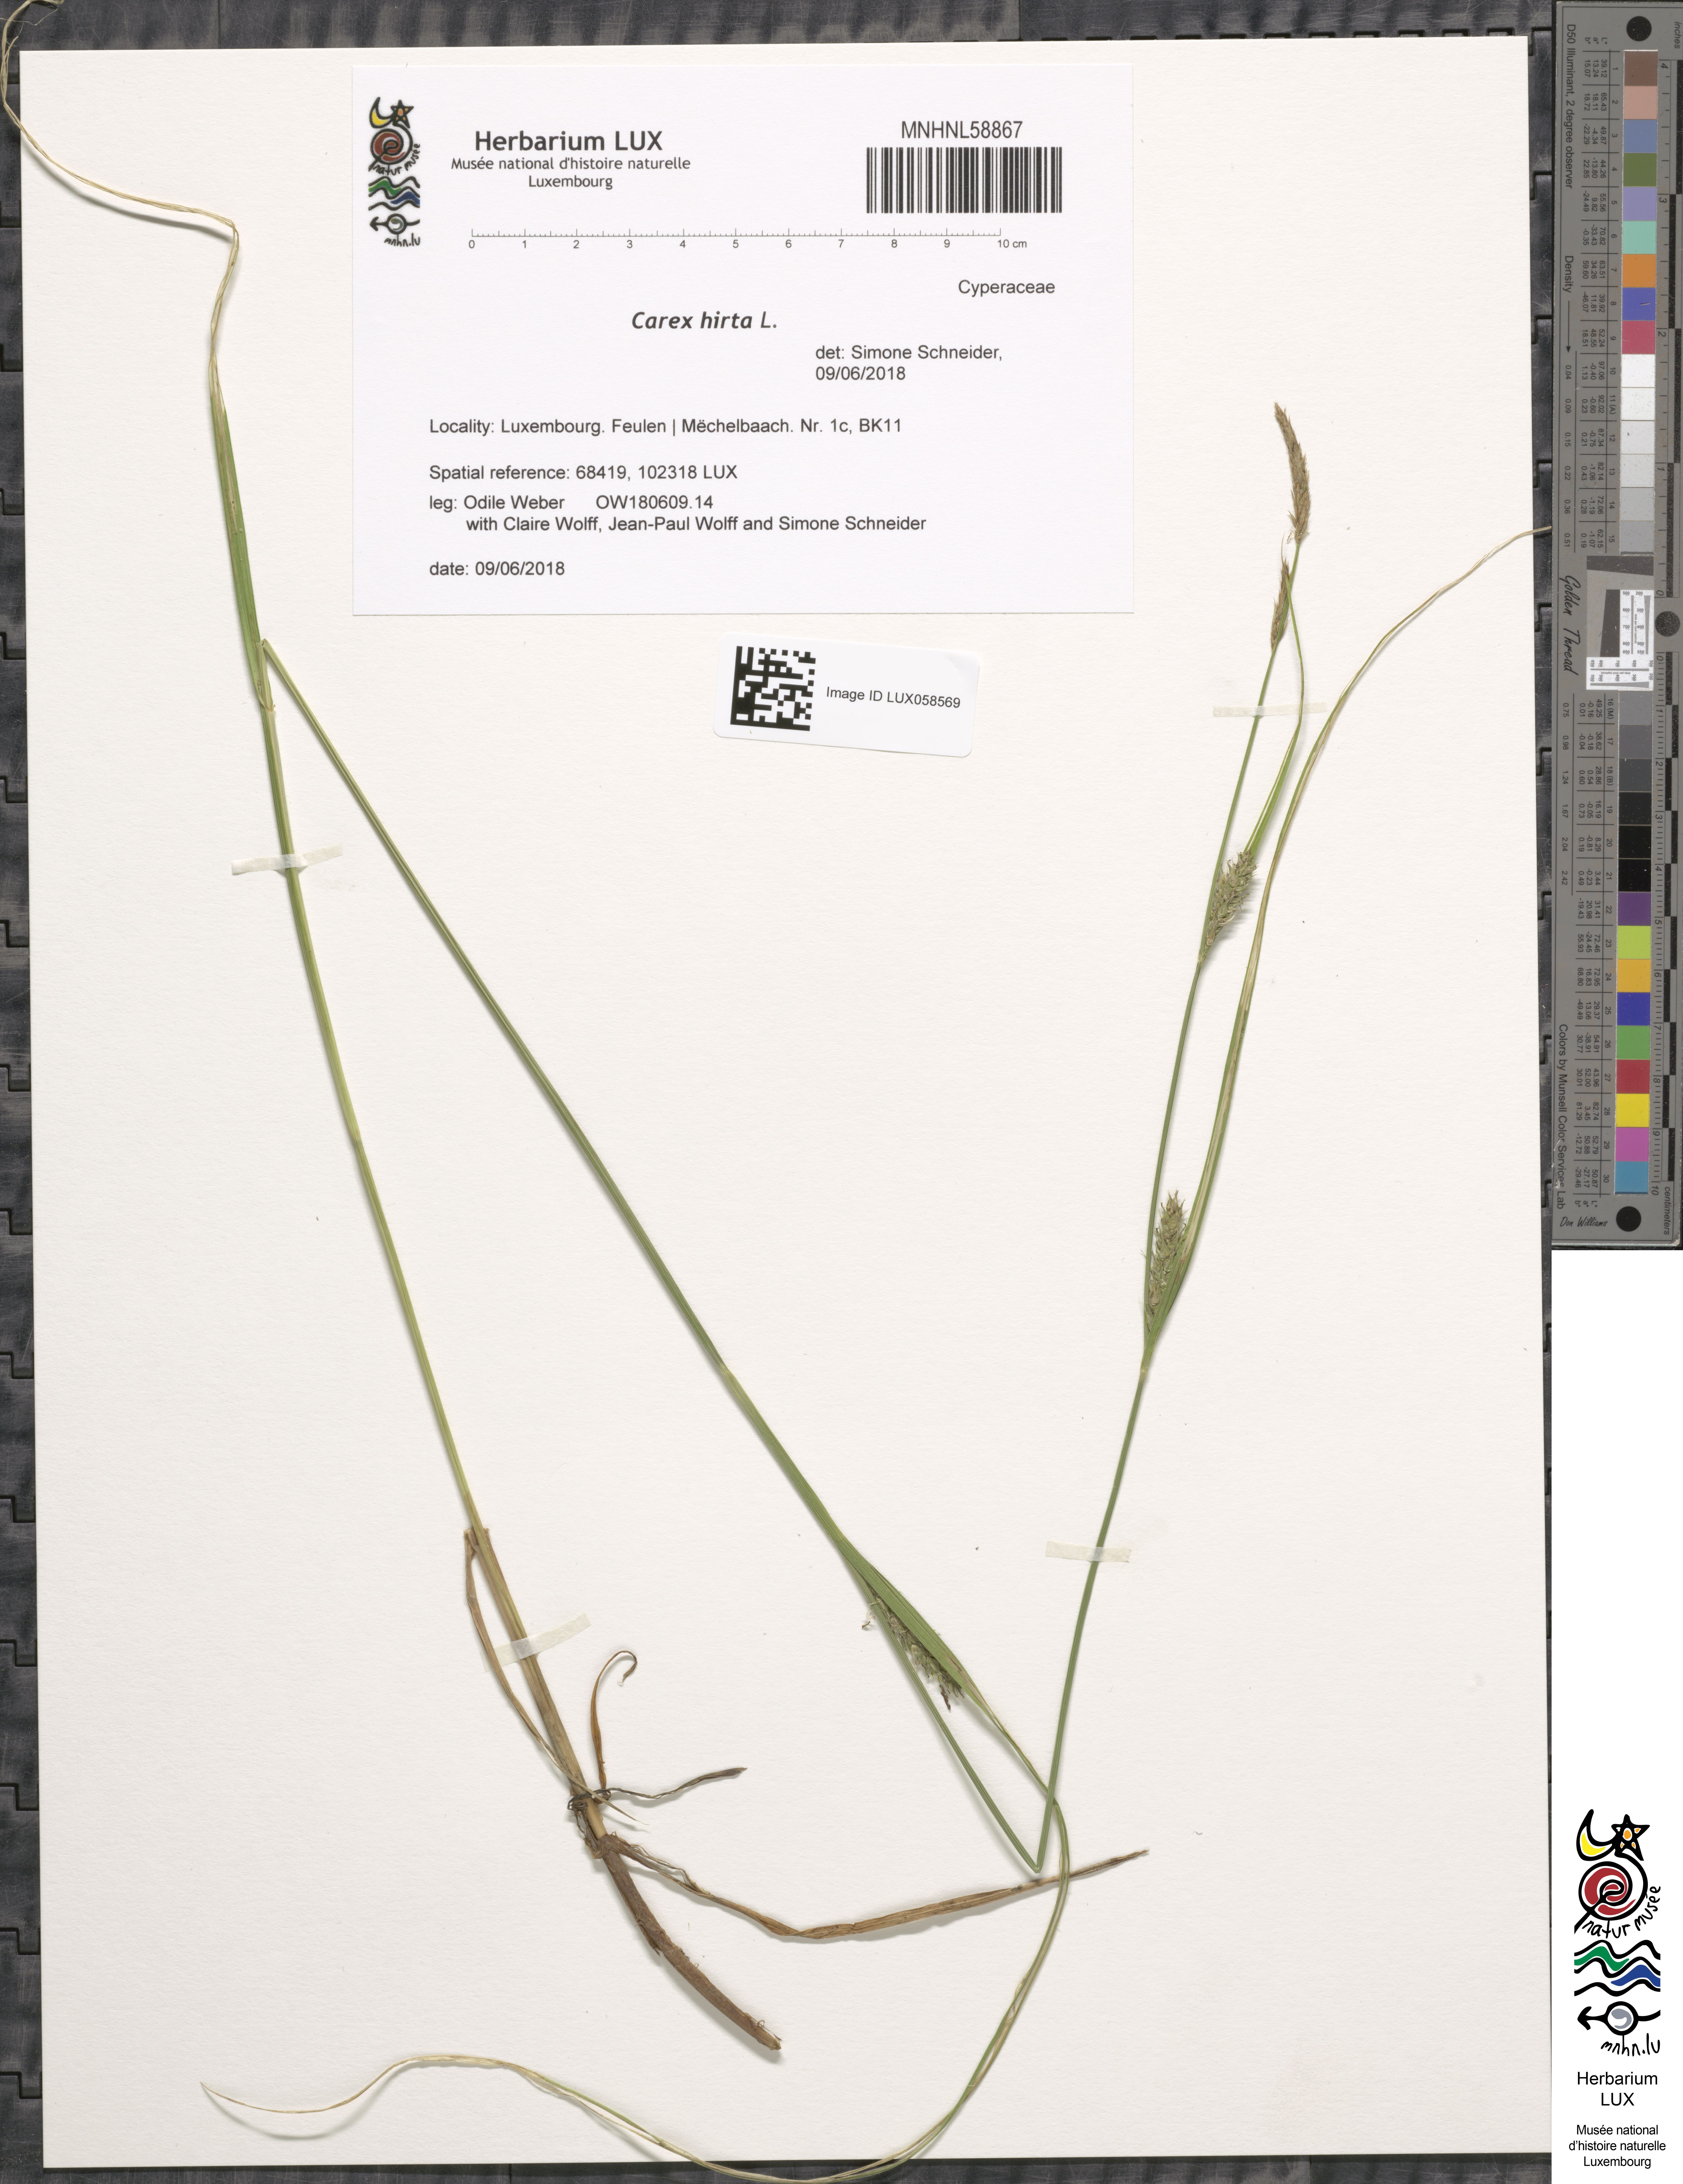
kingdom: Plantae
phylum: Tracheophyta
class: Liliopsida
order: Poales
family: Cyperaceae
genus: Carex
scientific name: Carex hirta
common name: Hairy sedge
